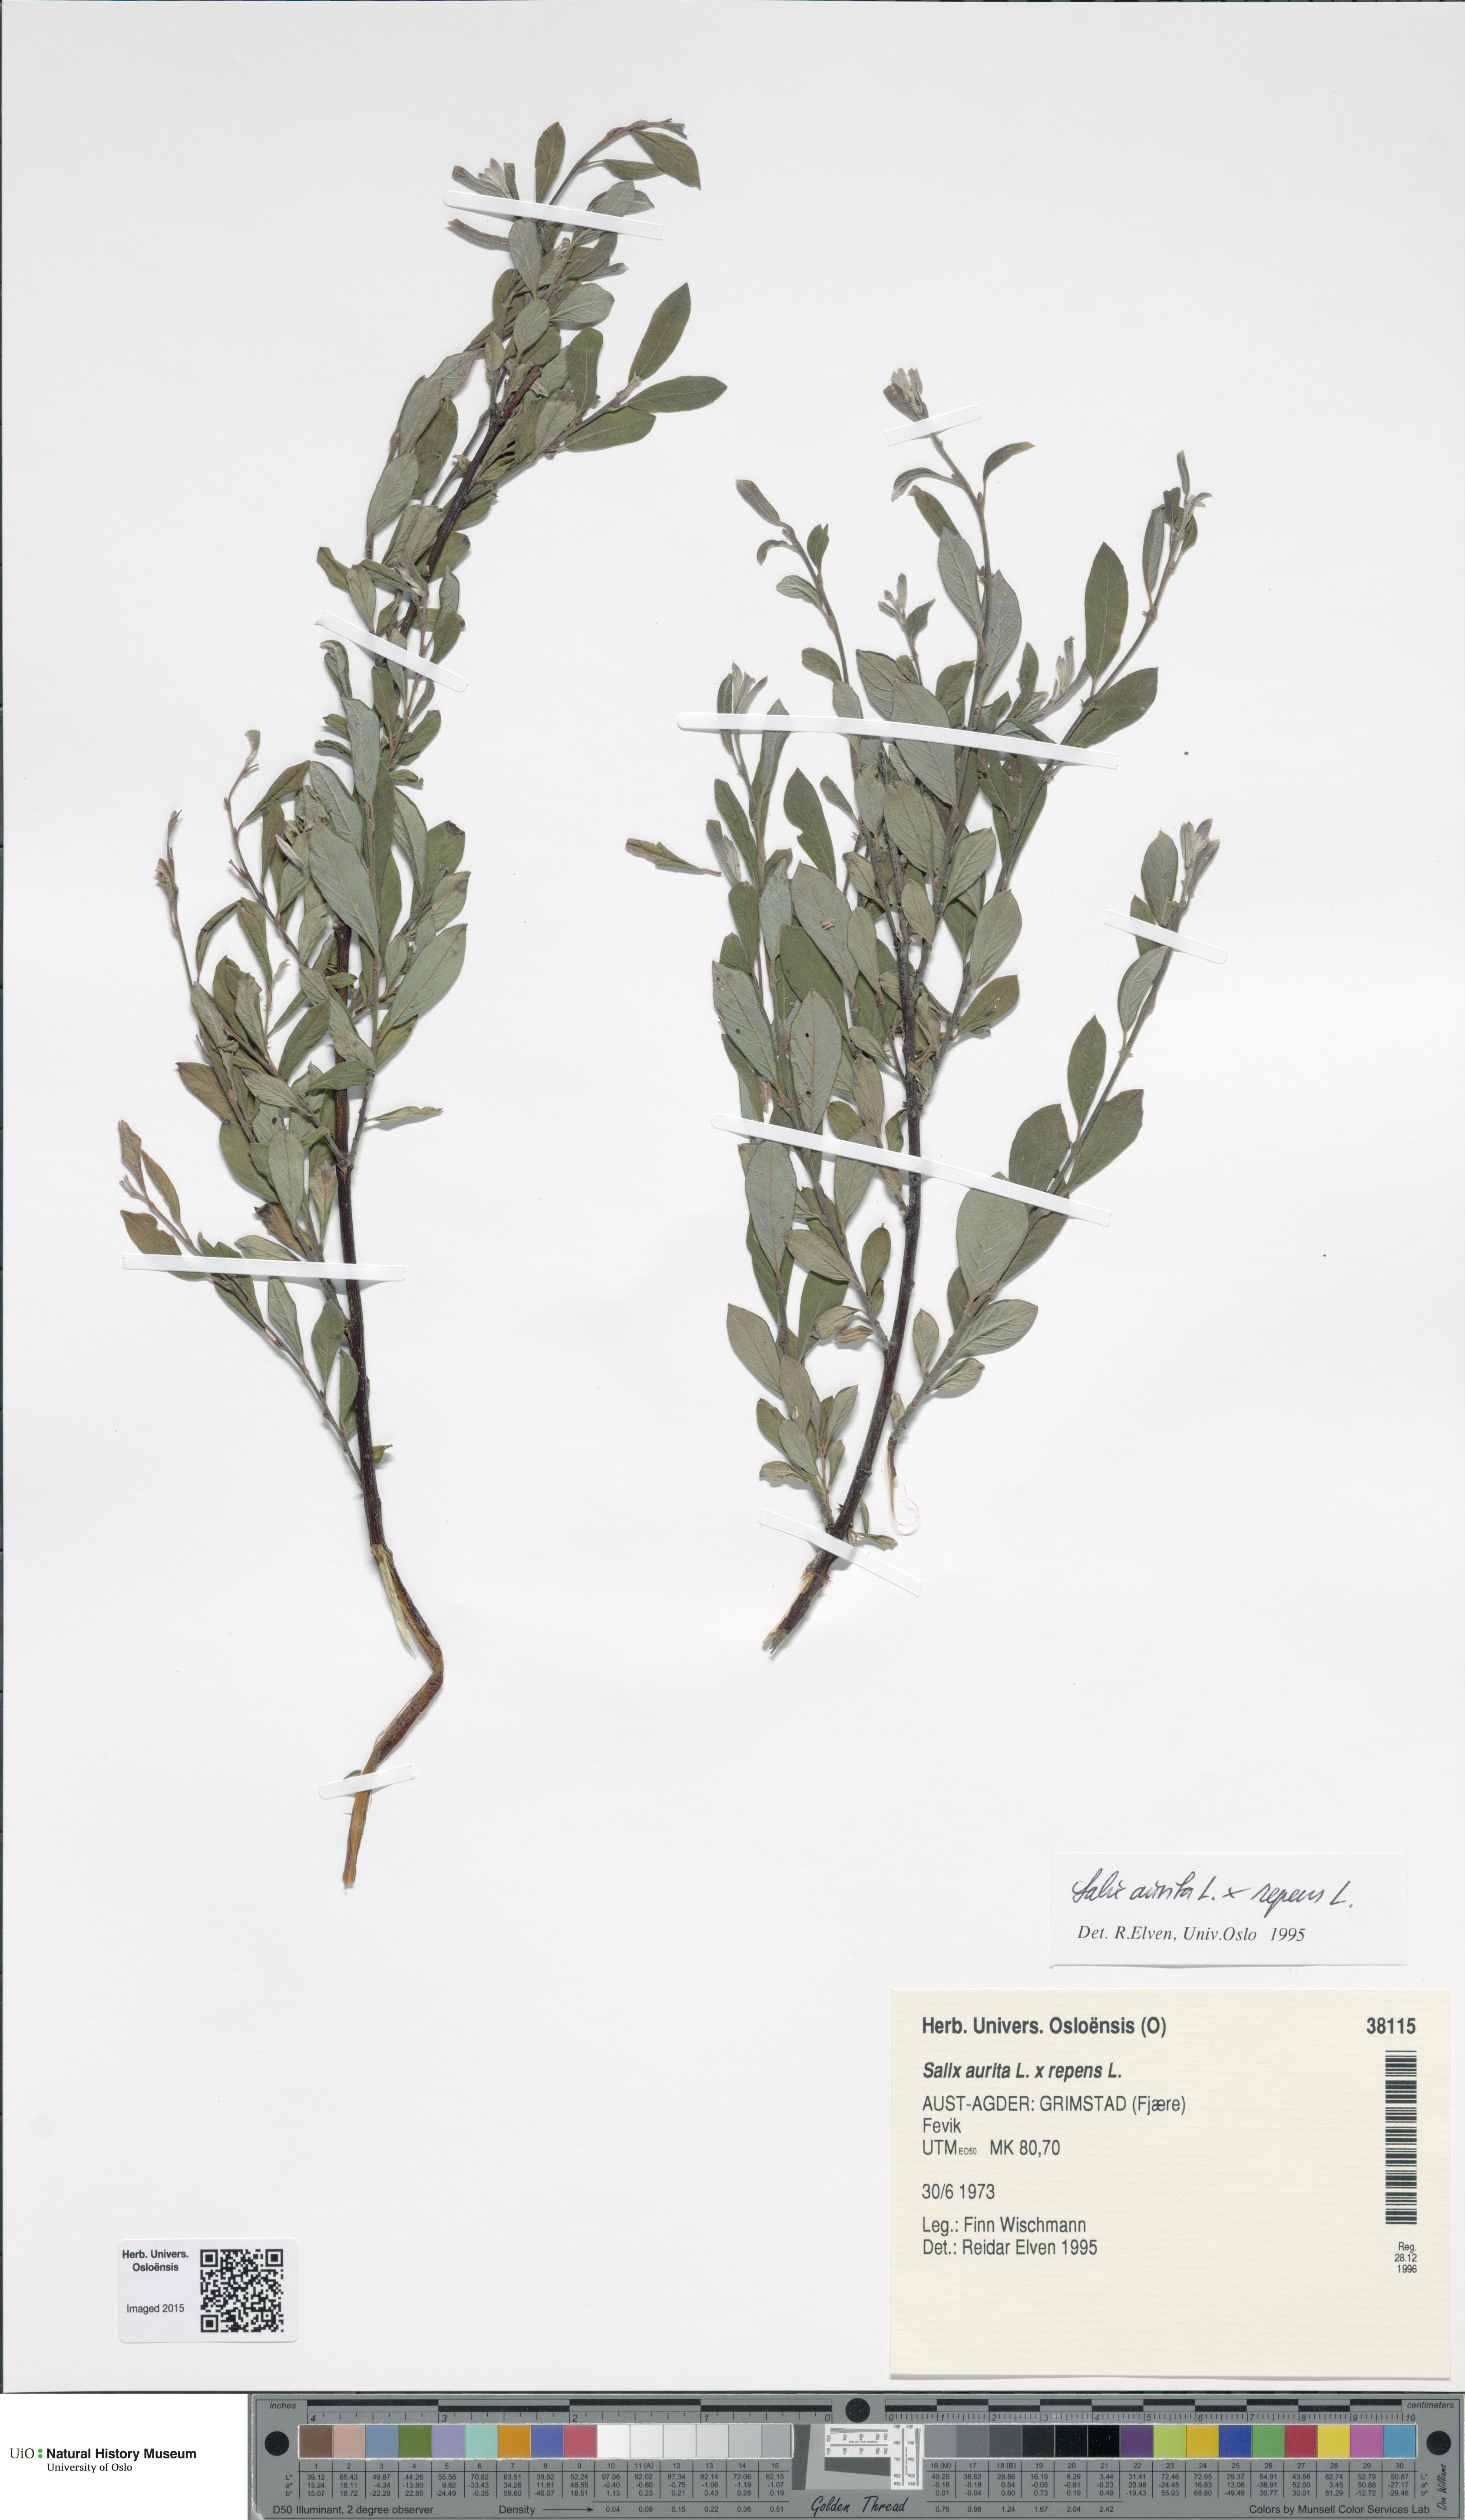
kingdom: Plantae
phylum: Tracheophyta
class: Magnoliopsida
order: Malpighiales
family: Salicaceae
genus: Salix
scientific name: Salix
